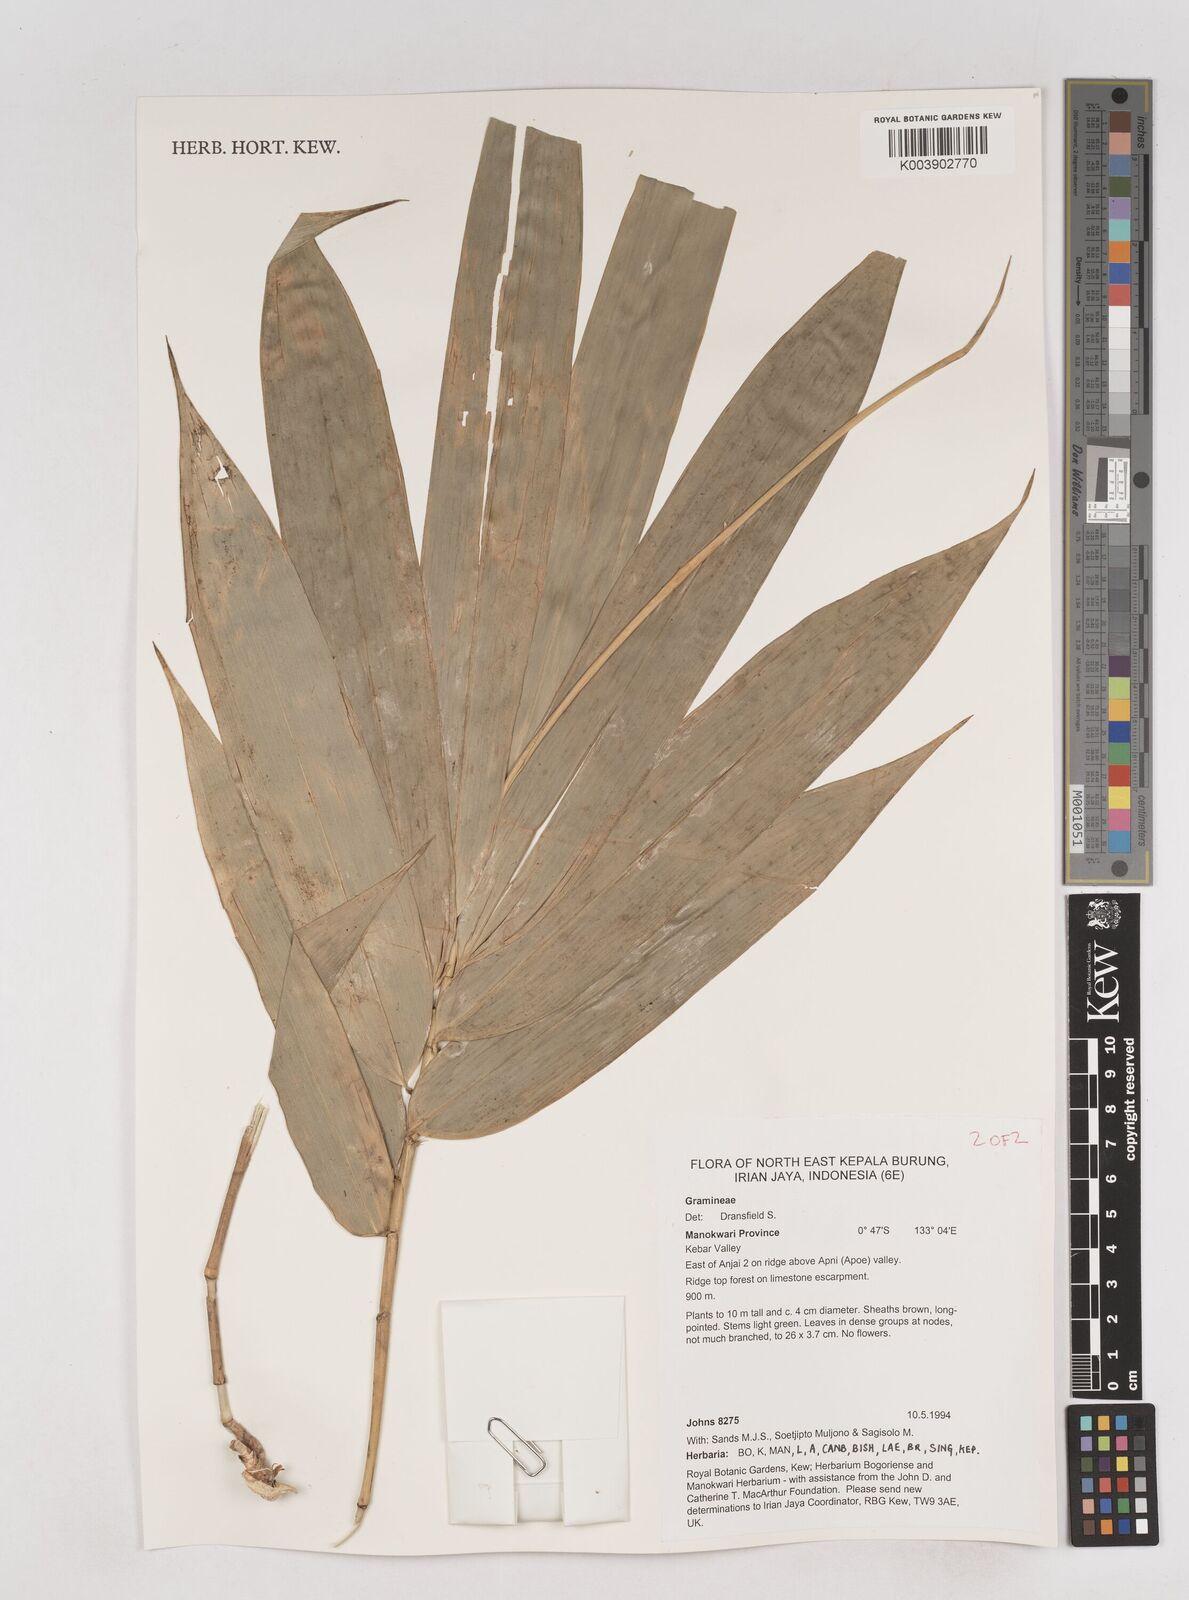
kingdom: Plantae
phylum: Tracheophyta
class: Liliopsida
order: Poales
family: Poaceae
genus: Schizostachyum
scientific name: Schizostachyum
